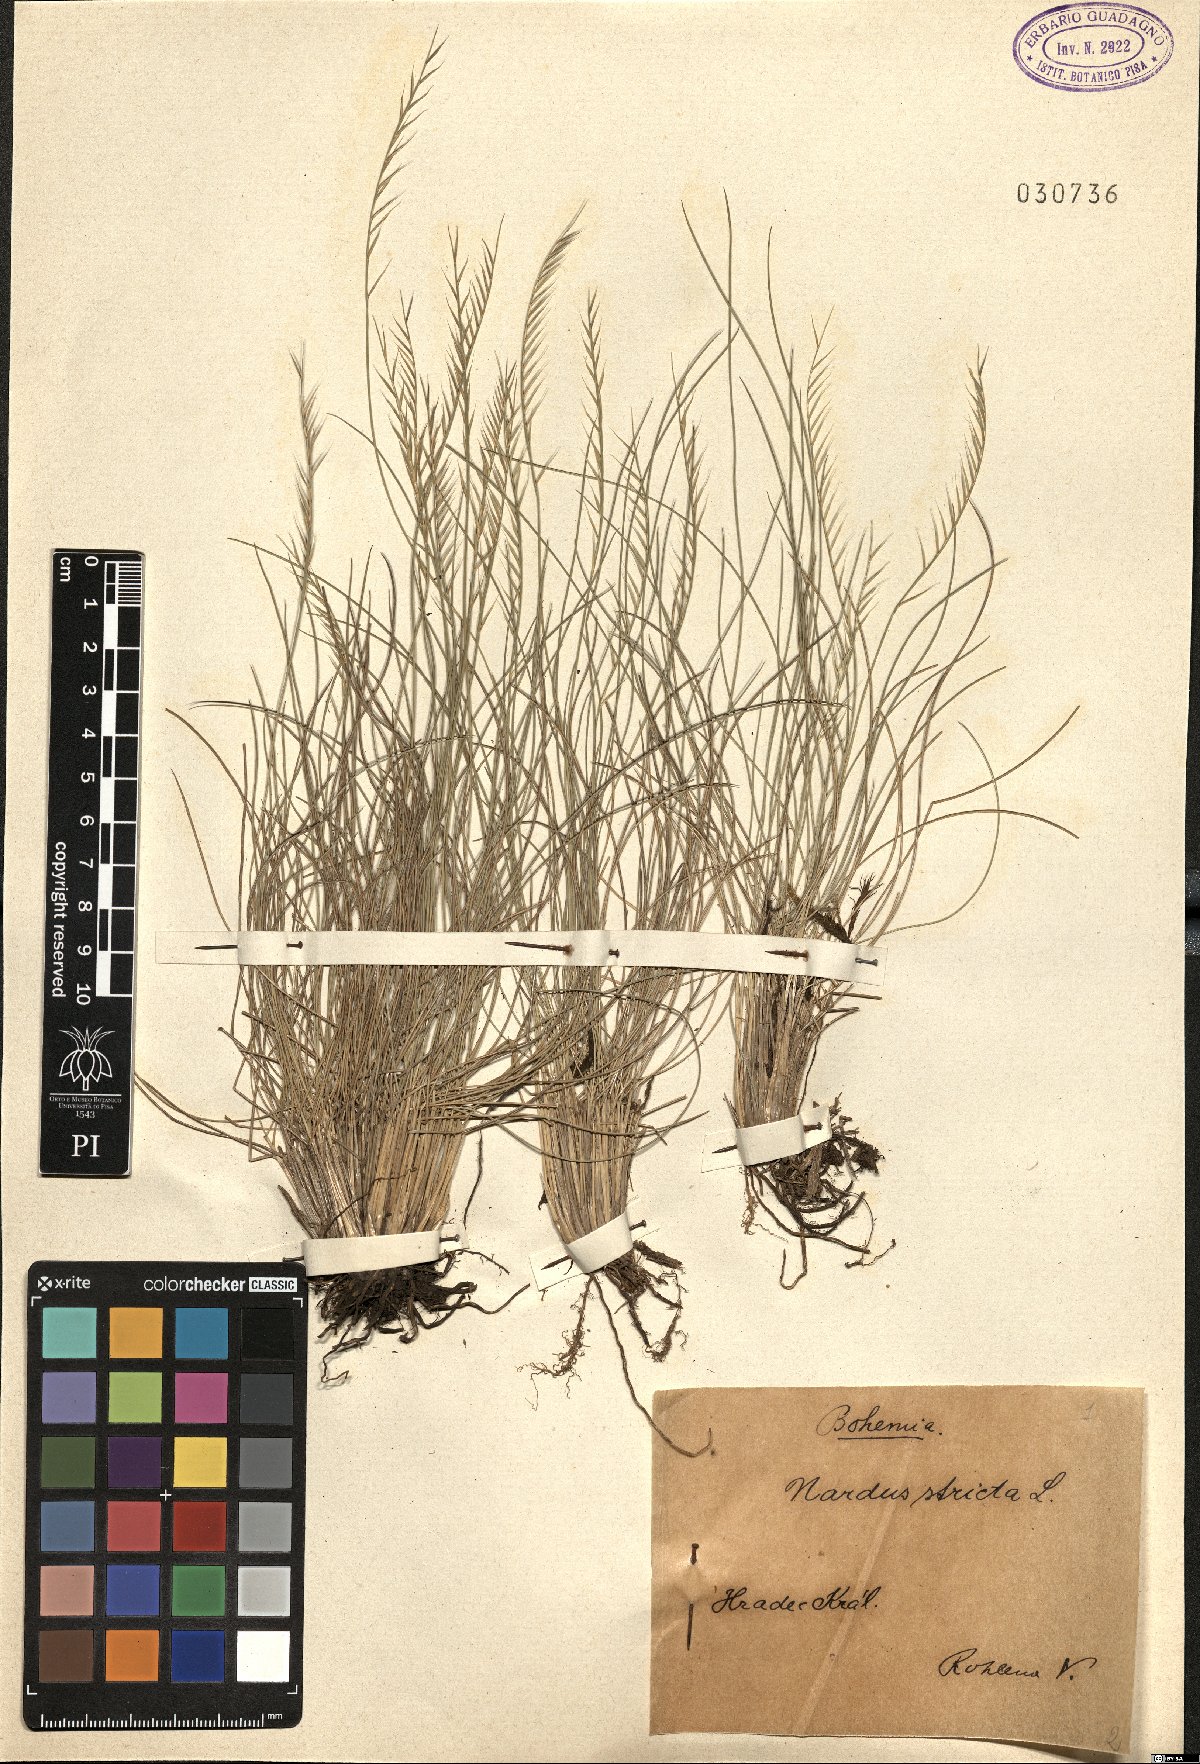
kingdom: Plantae
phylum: Tracheophyta
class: Liliopsida
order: Poales
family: Poaceae
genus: Nardus
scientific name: Nardus stricta
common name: Mat-grass
